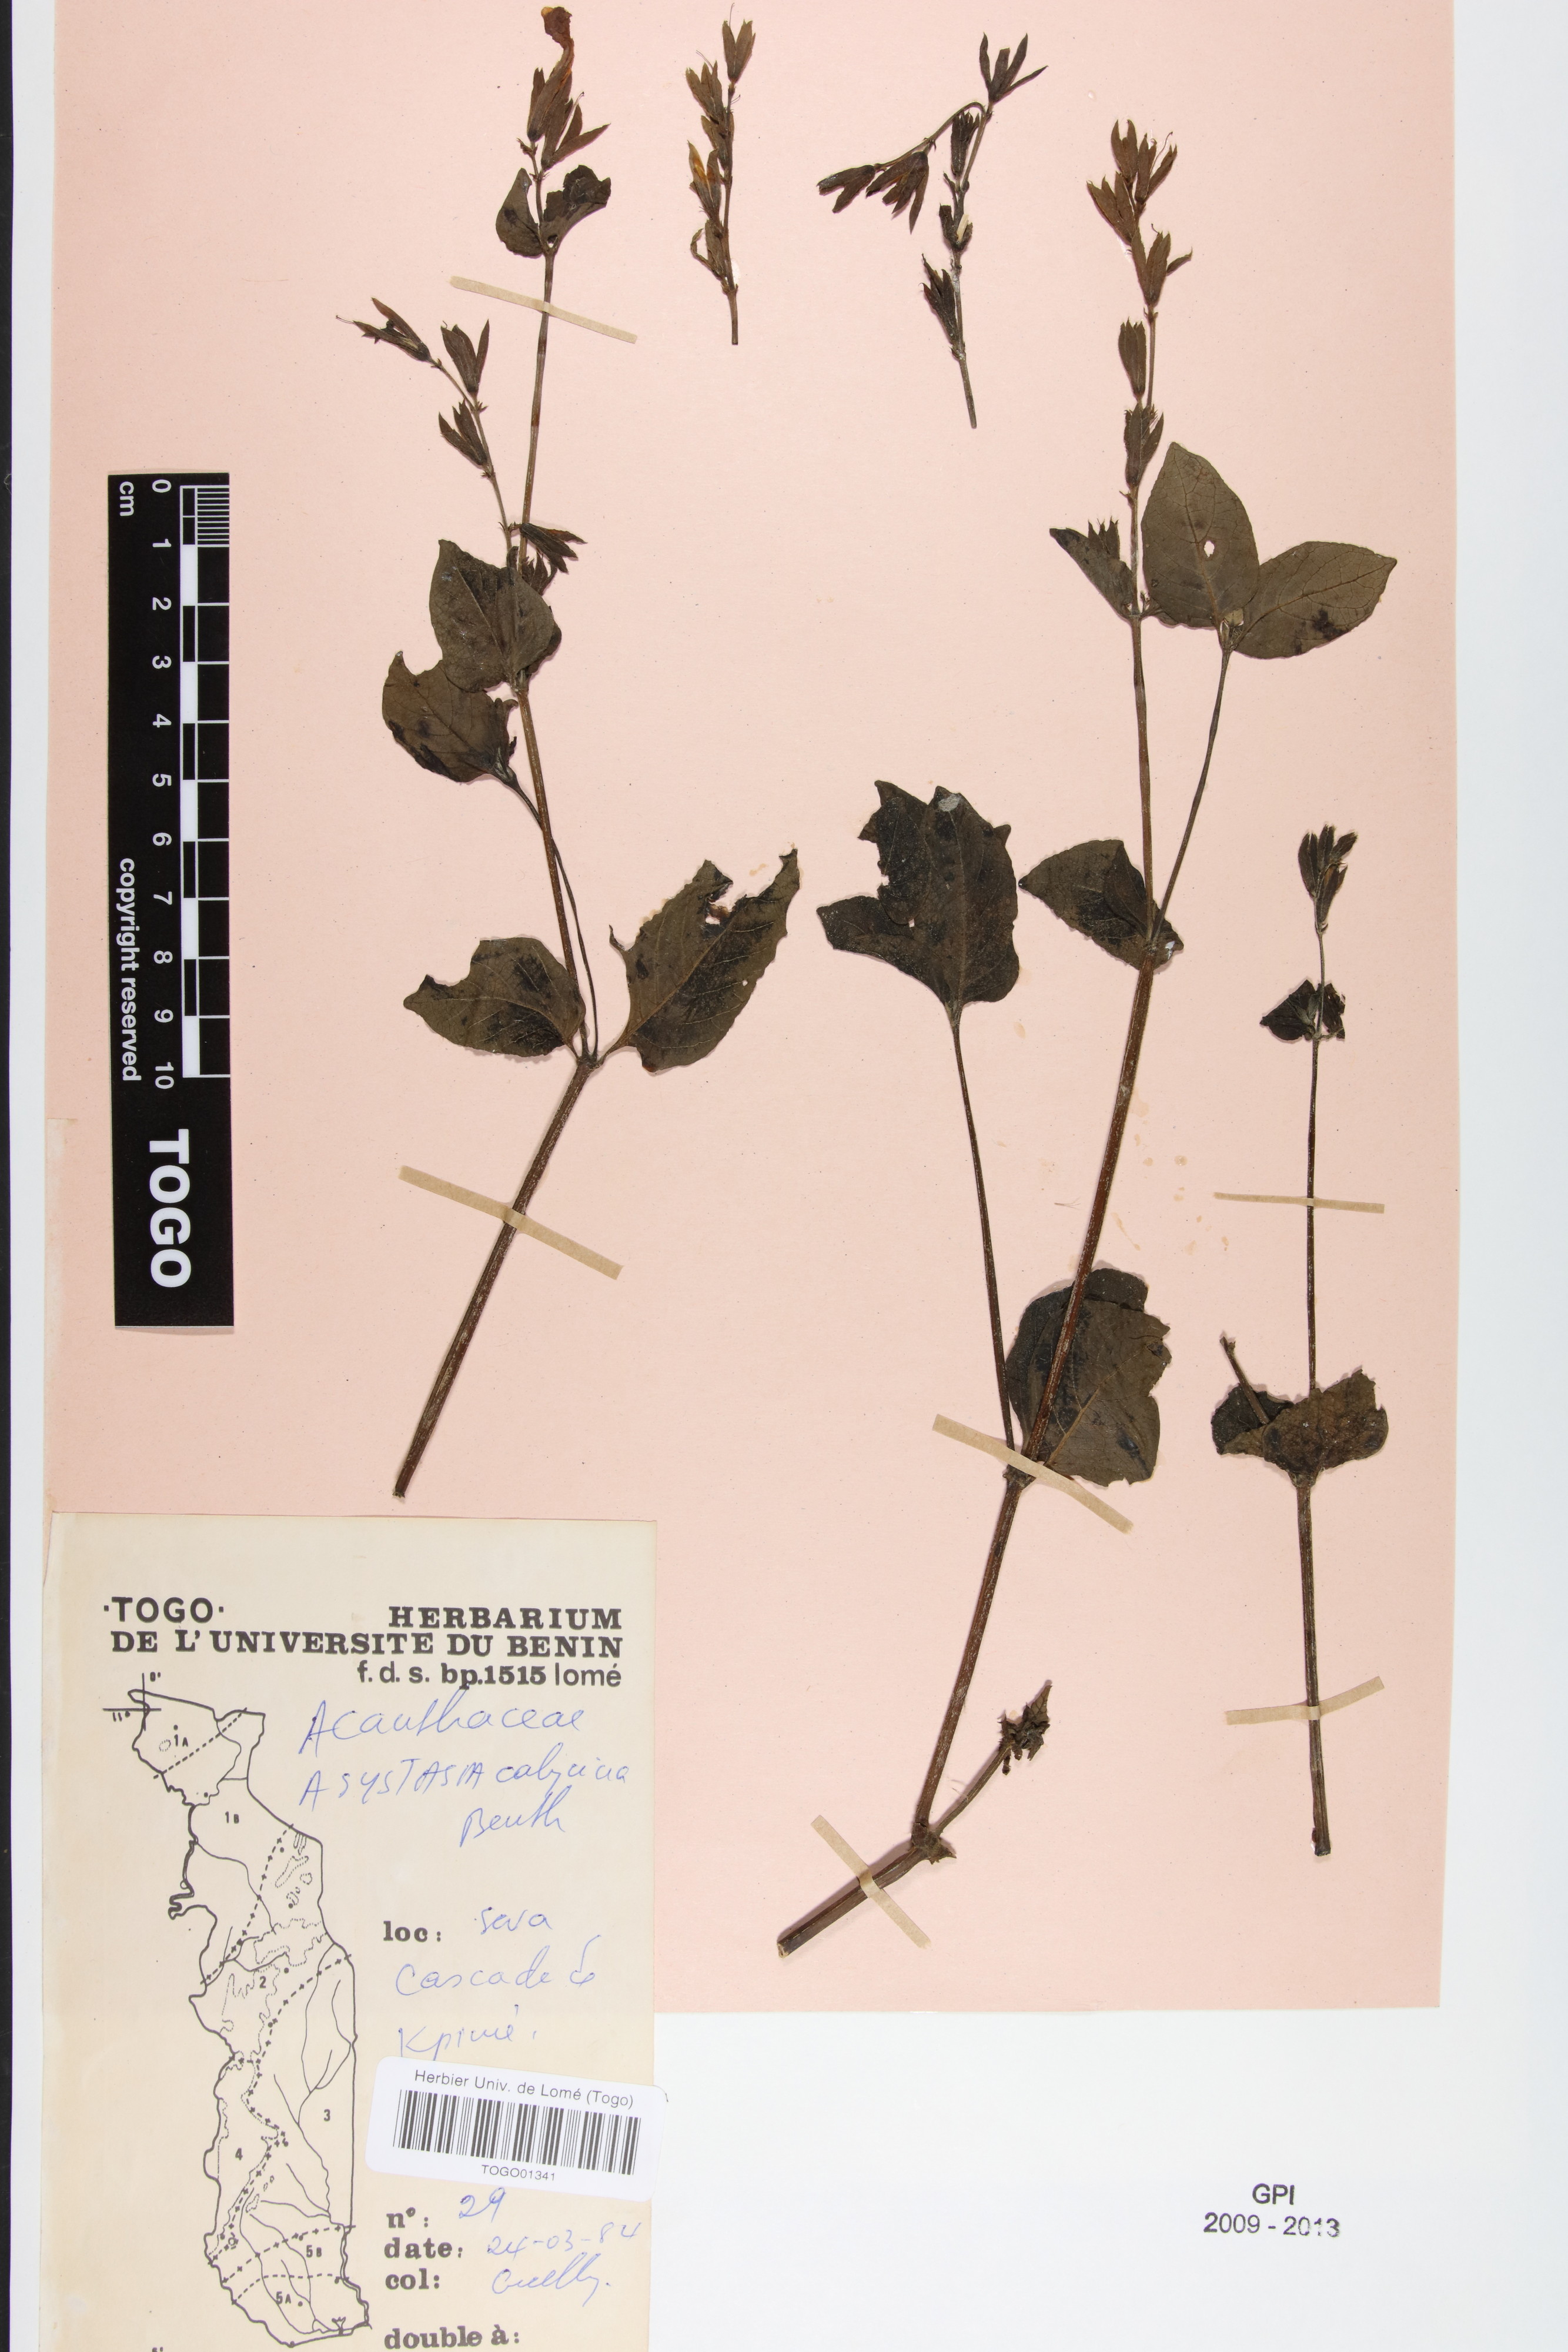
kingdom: Plantae
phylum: Tracheophyta
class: Magnoliopsida
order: Lamiales
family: Acanthaceae
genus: Asystasia
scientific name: Asystasia buettneri
